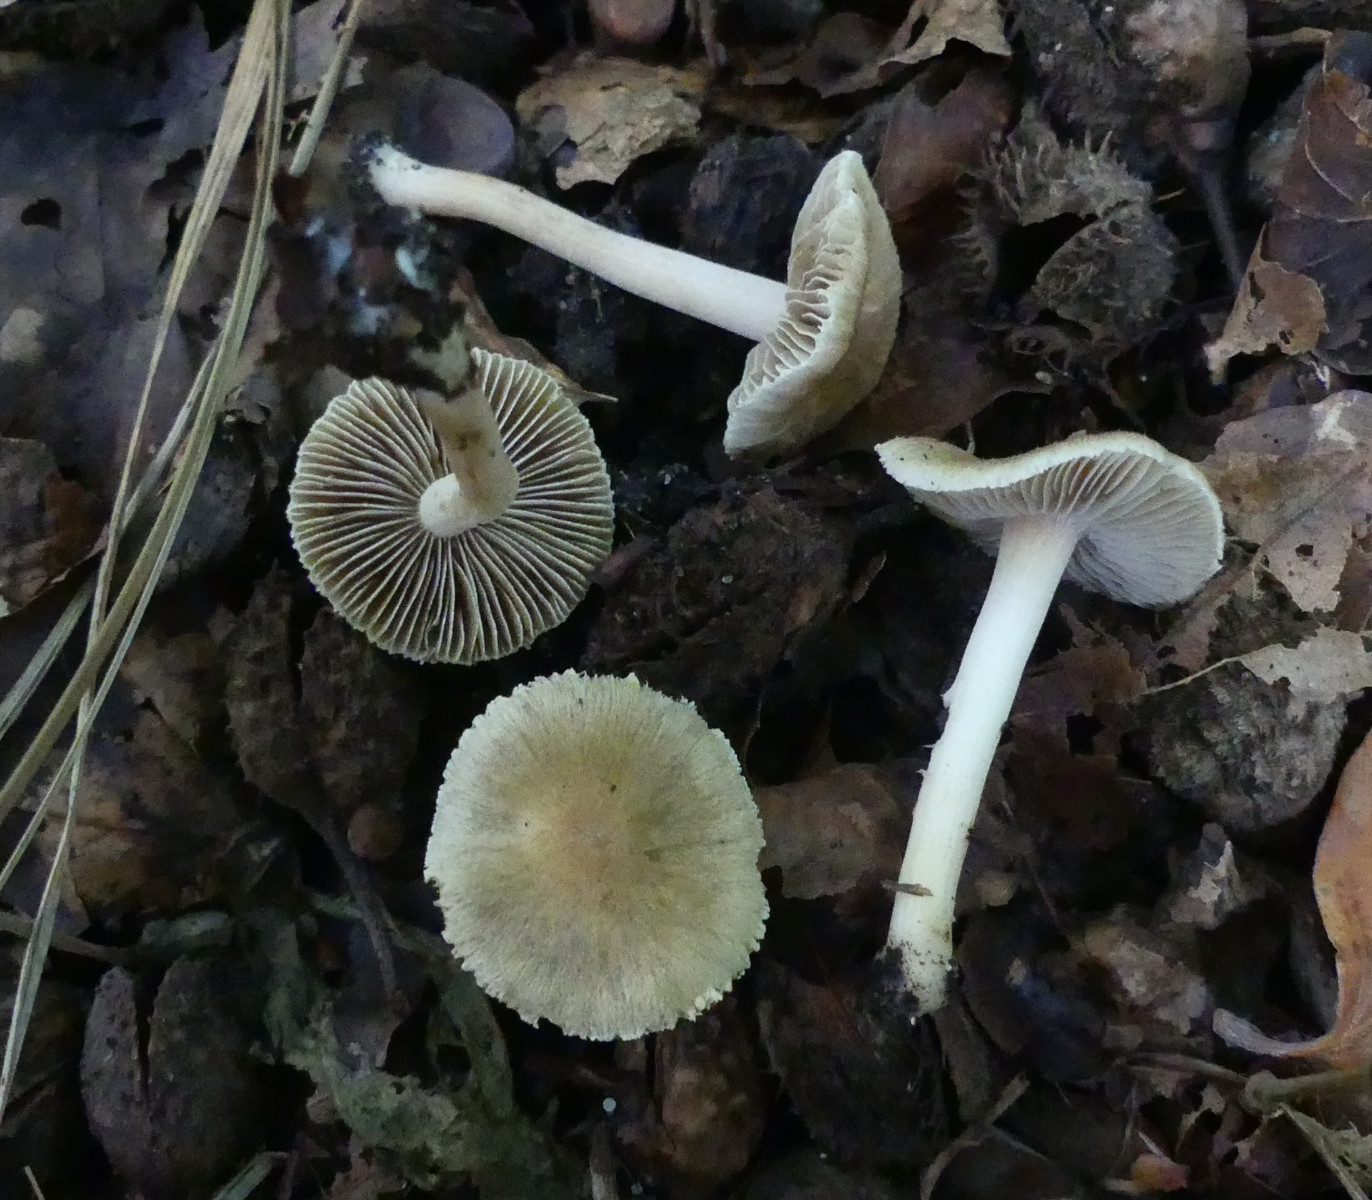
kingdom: Fungi
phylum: Basidiomycota
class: Agaricomycetes
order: Agaricales
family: Inocybaceae
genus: Inocybe
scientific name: Inocybe hirtella
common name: mandel-trævlhat
